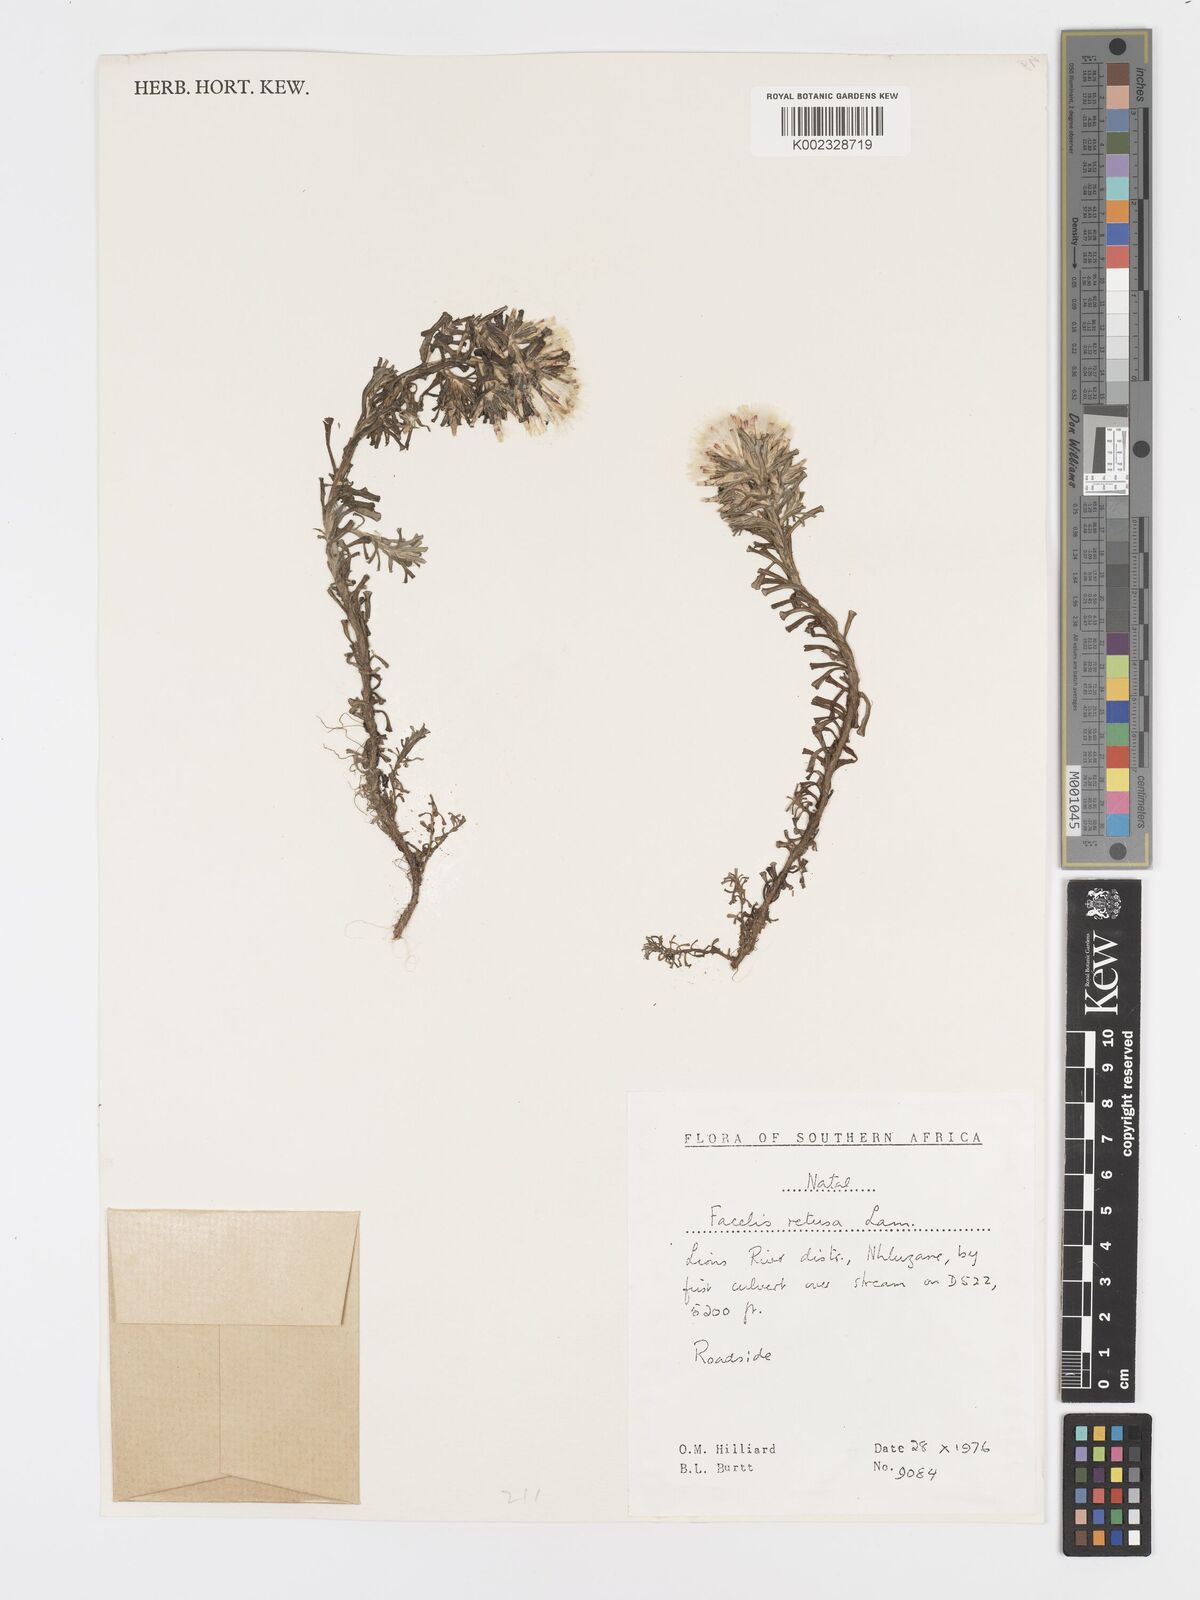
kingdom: Plantae
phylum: Tracheophyta
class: Magnoliopsida
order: Asterales
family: Asteraceae
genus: Facelis
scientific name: Facelis retusa
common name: Annual trampweed
